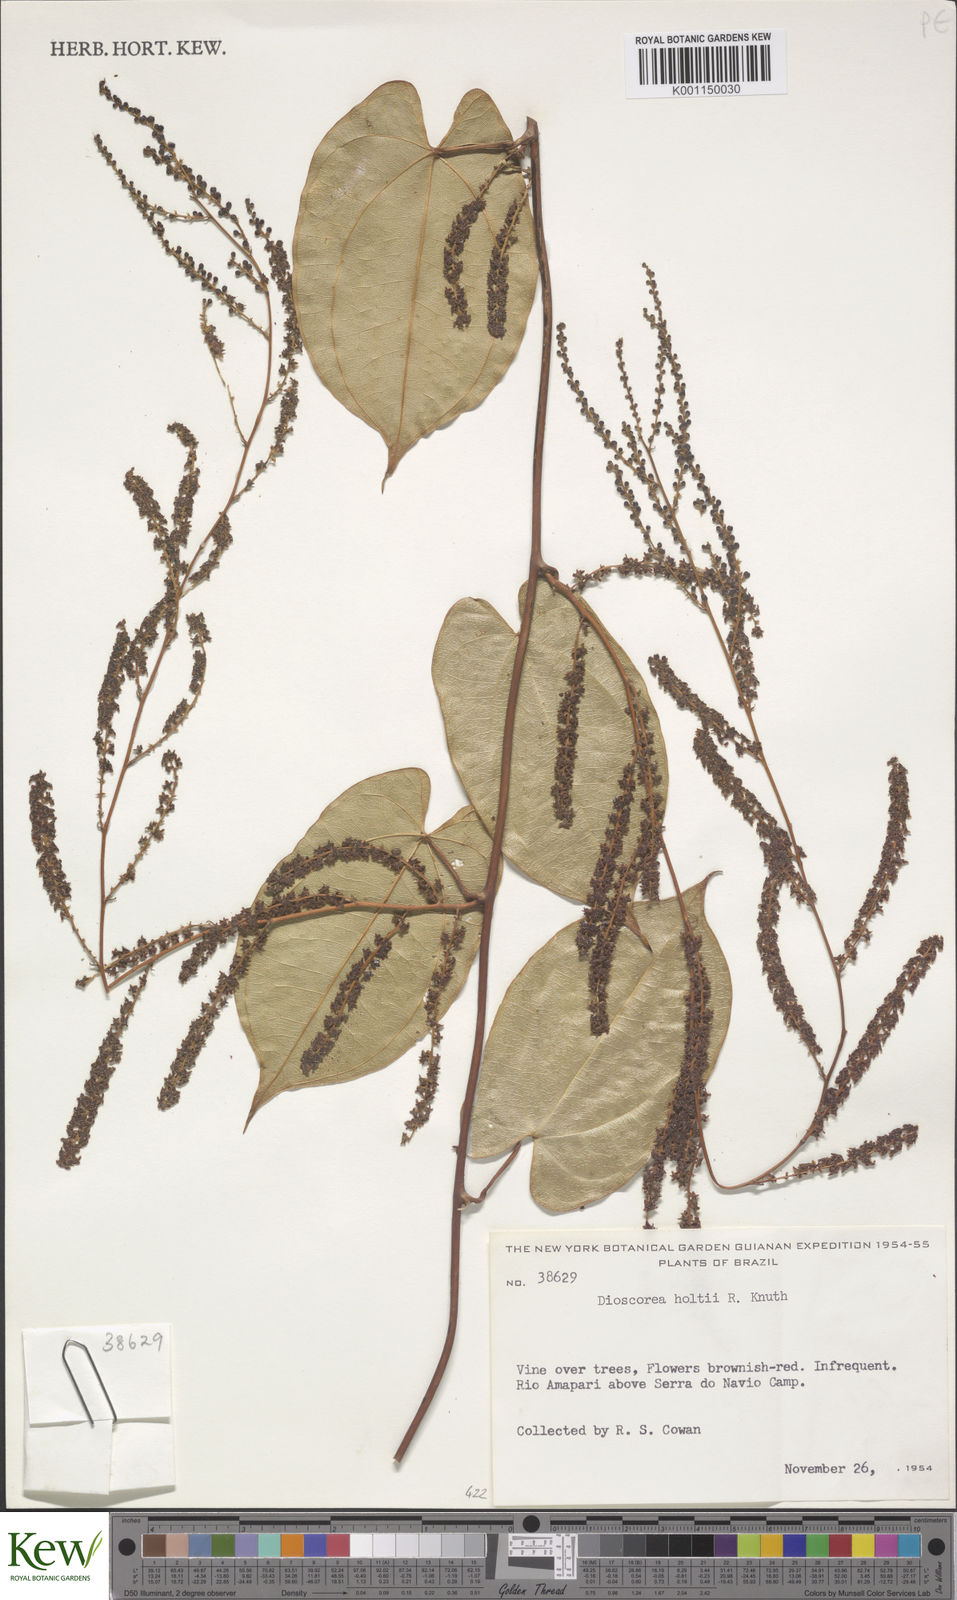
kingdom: Plantae
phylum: Tracheophyta
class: Liliopsida
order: Dioscoreales
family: Dioscoreaceae
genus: Dioscorea
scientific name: Dioscorea amazonum
